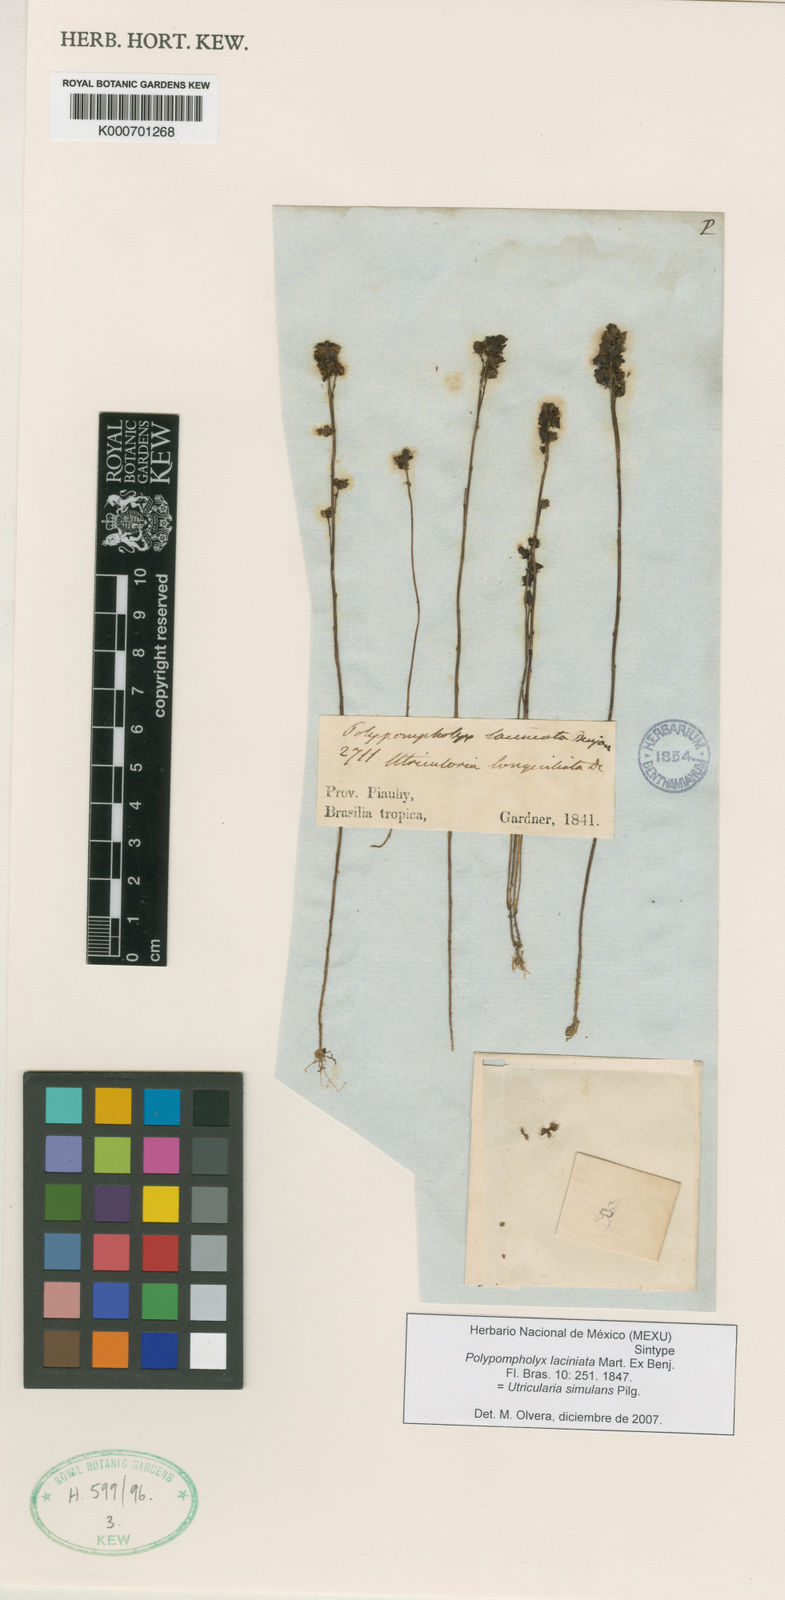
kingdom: Plantae
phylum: Tracheophyta
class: Magnoliopsida
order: Lamiales
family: Lentibulariaceae
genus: Utricularia
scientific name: Utricularia simulans
